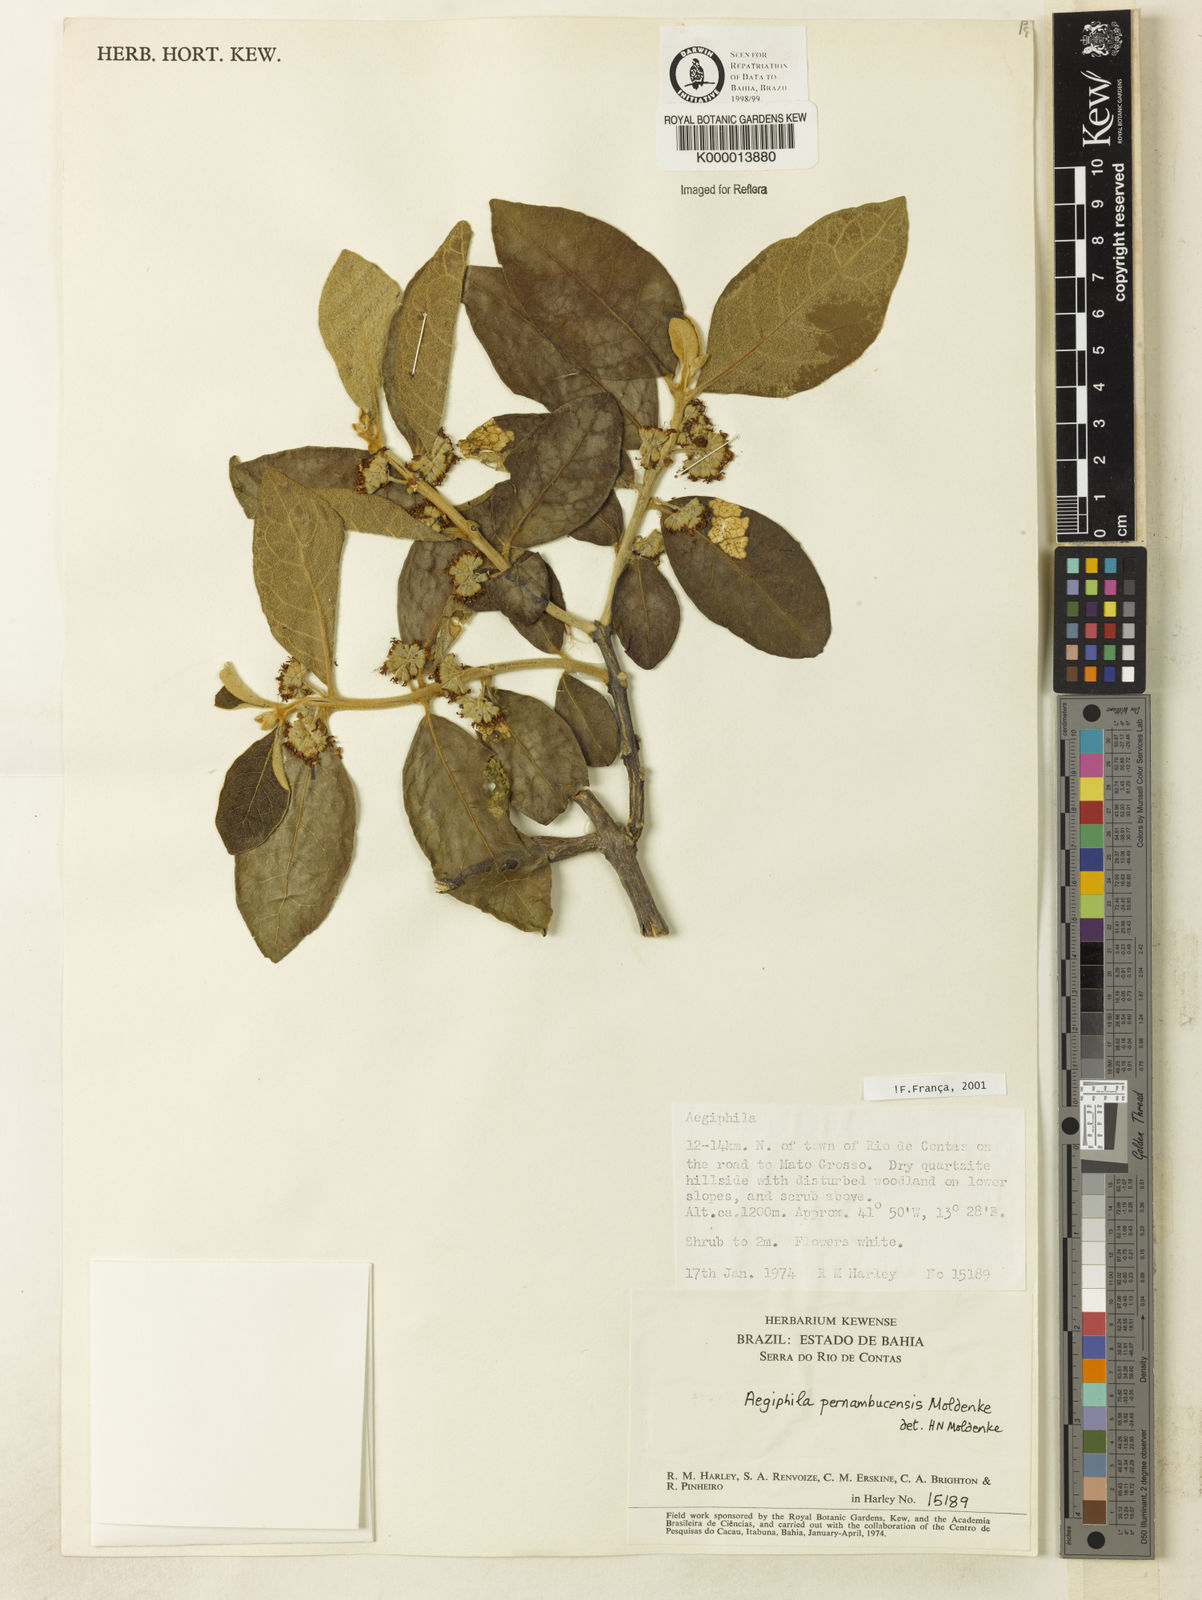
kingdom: Plantae
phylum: Tracheophyta
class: Magnoliopsida
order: Lamiales
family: Lamiaceae
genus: Aegiphila
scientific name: Aegiphila pernambucensis
